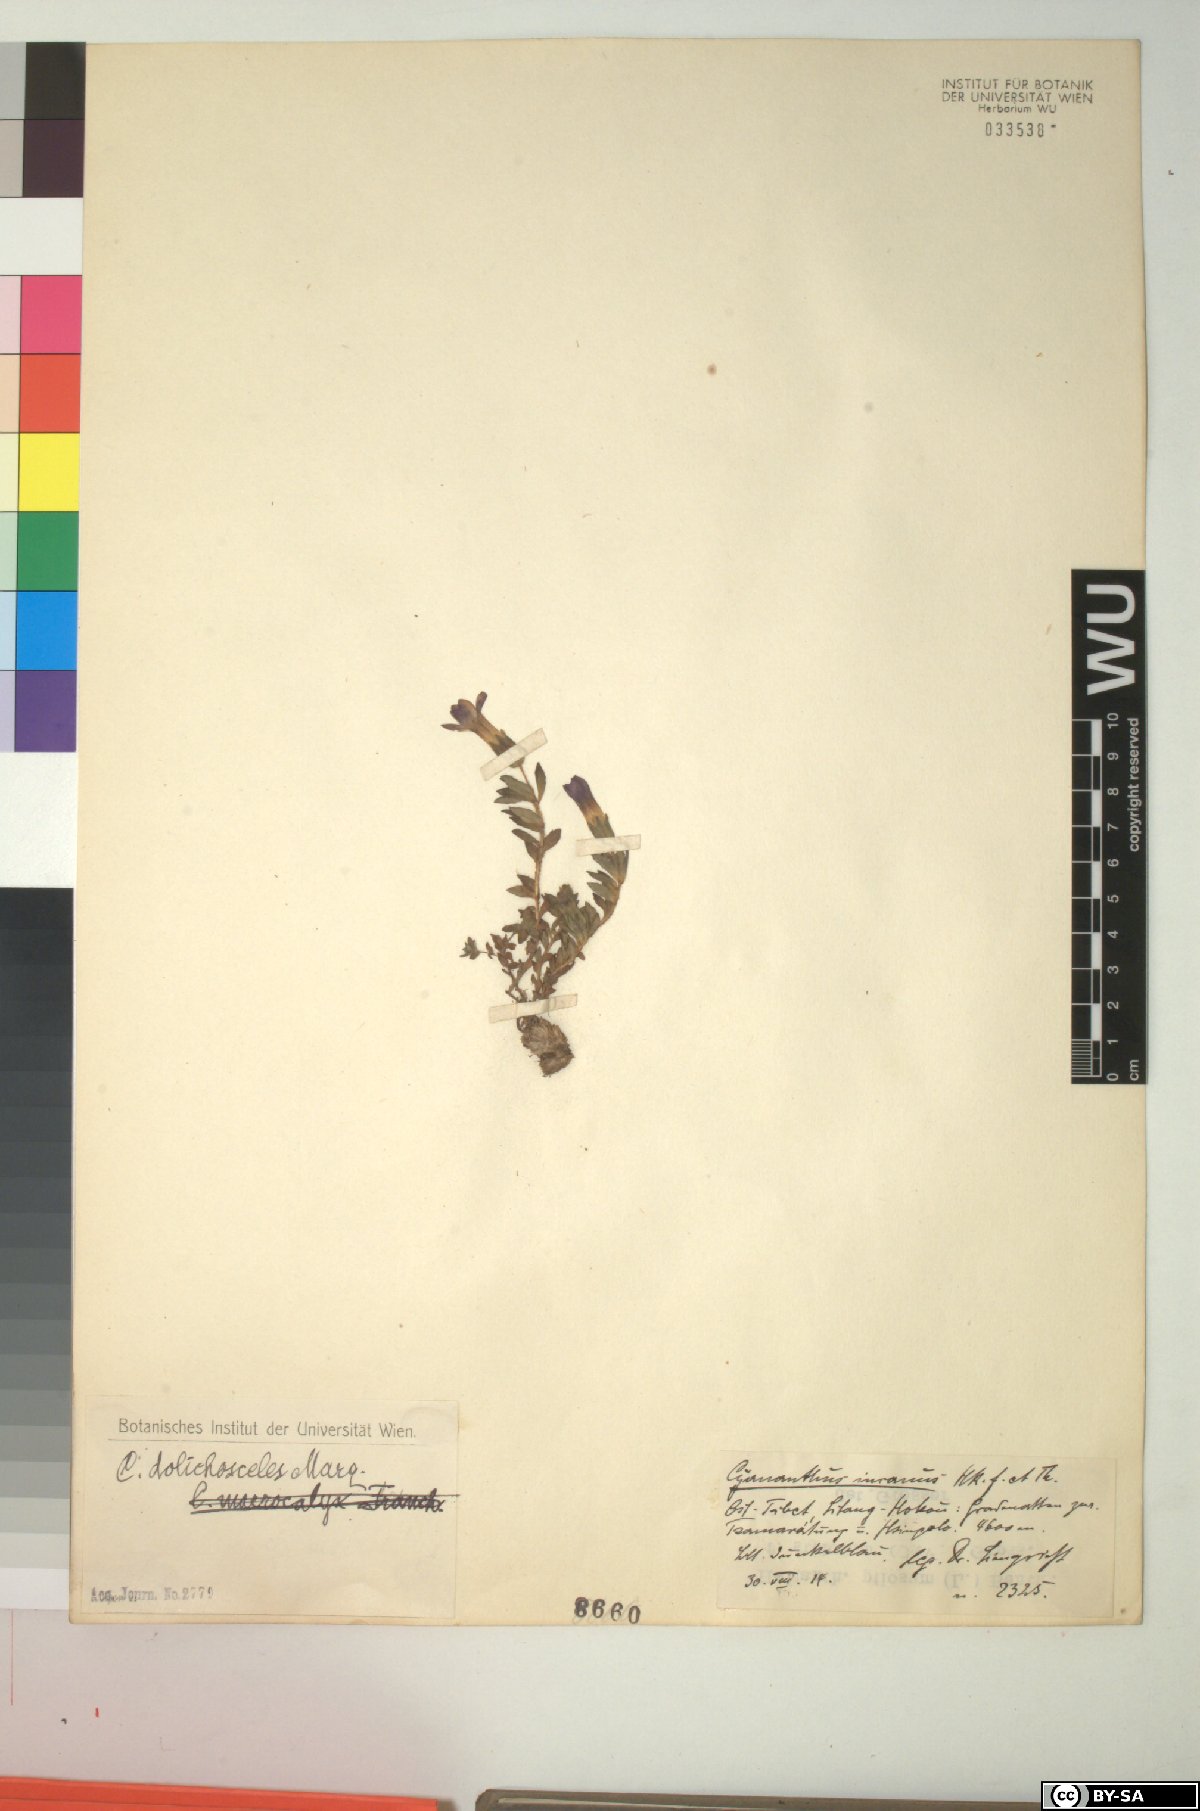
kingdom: Plantae
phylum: Tracheophyta
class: Magnoliopsida
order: Asterales
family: Campanulaceae
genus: Cyananthus
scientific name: Cyananthus incanus
